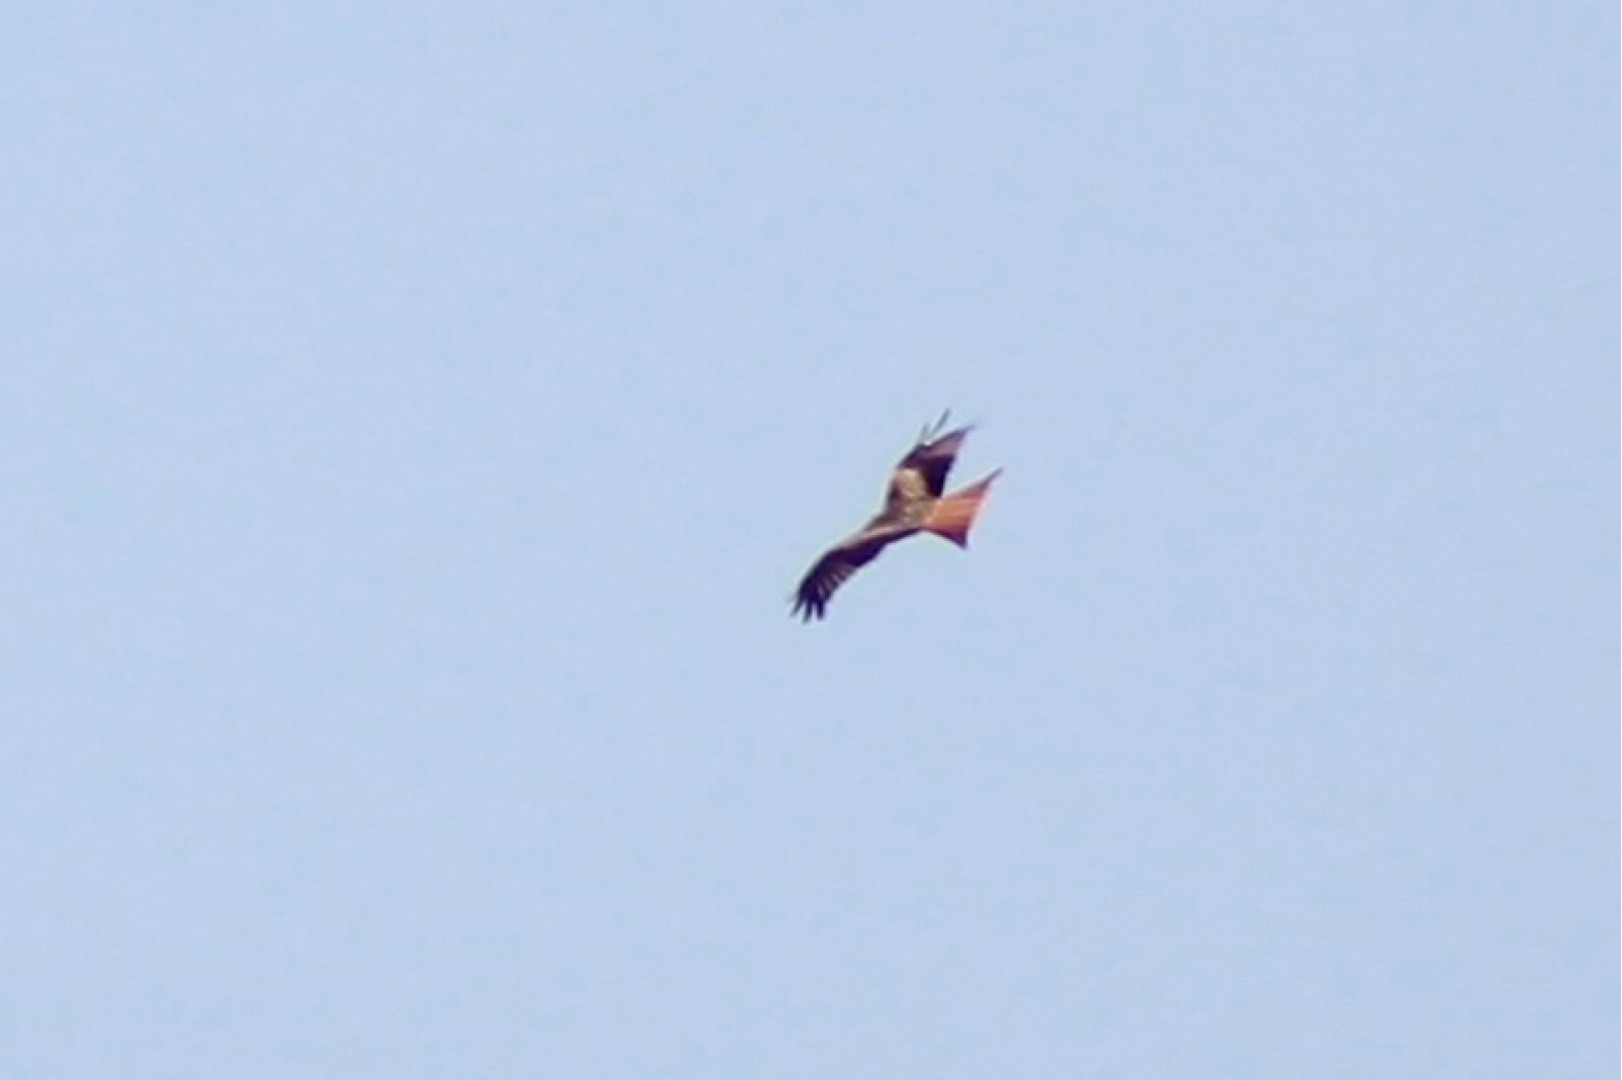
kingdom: Animalia
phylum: Chordata
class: Aves
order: Accipitriformes
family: Accipitridae
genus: Milvus
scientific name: Milvus milvus
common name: Rød glente
